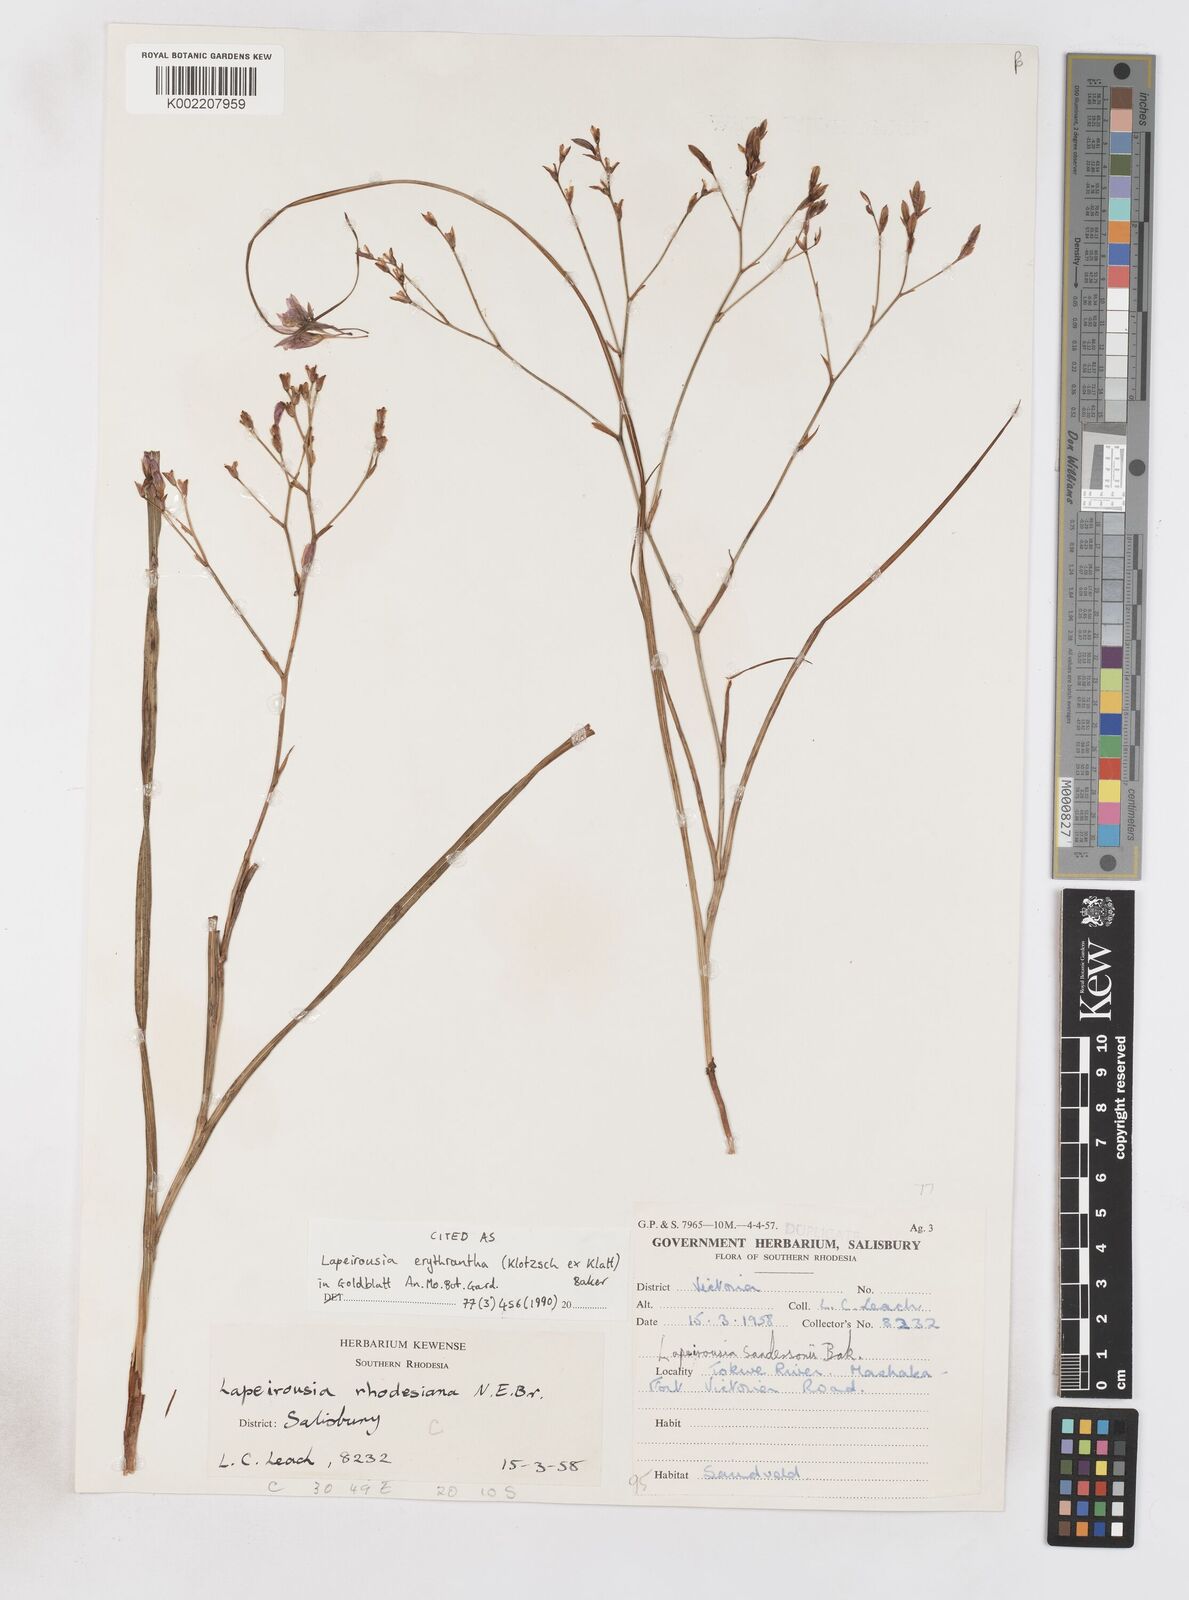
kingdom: Plantae
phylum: Tracheophyta
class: Liliopsida
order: Asparagales
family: Iridaceae
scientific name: Iridaceae
